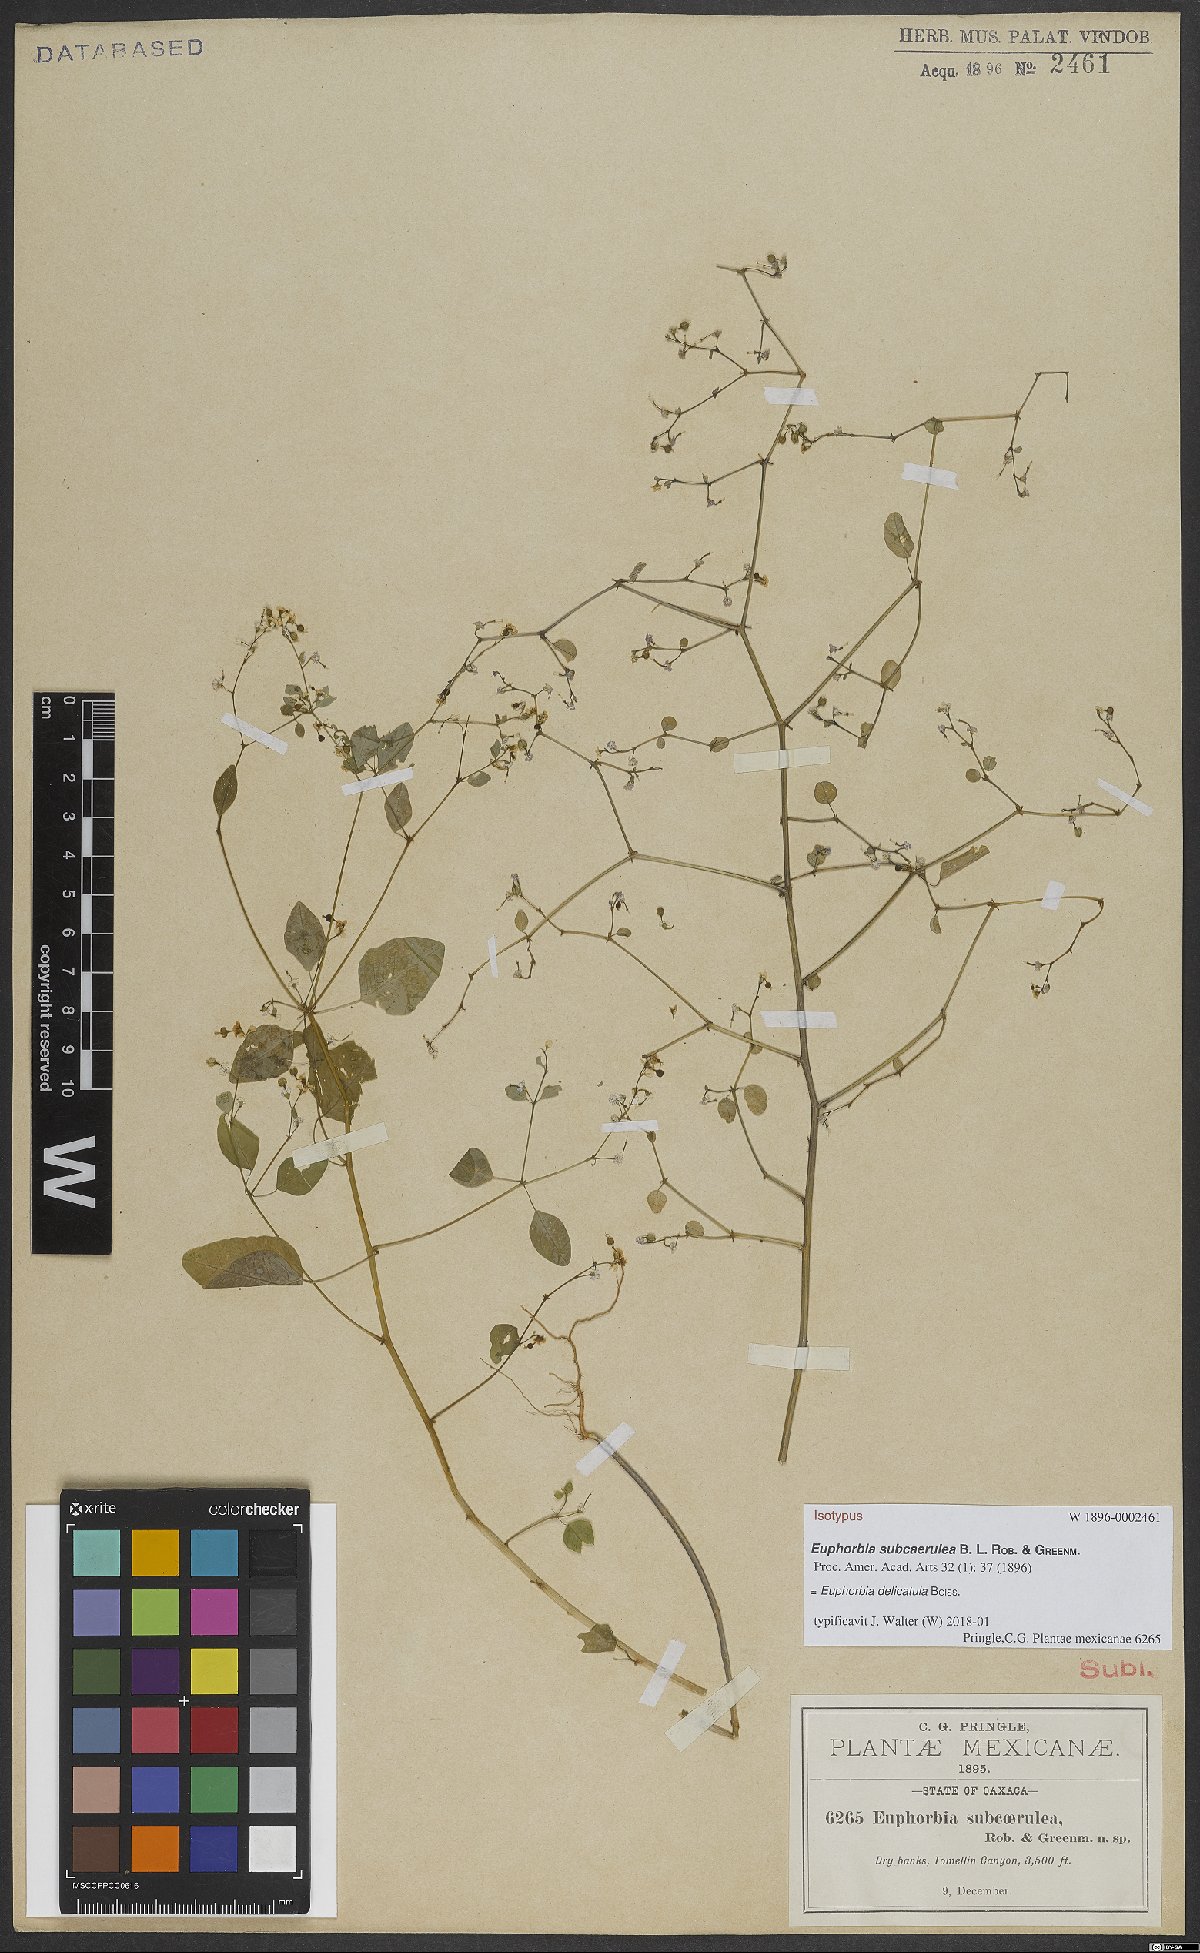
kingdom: Plantae
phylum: Tracheophyta
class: Magnoliopsida
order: Malpighiales
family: Euphorbiaceae
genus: Euphorbia
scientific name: Euphorbia delicatula
